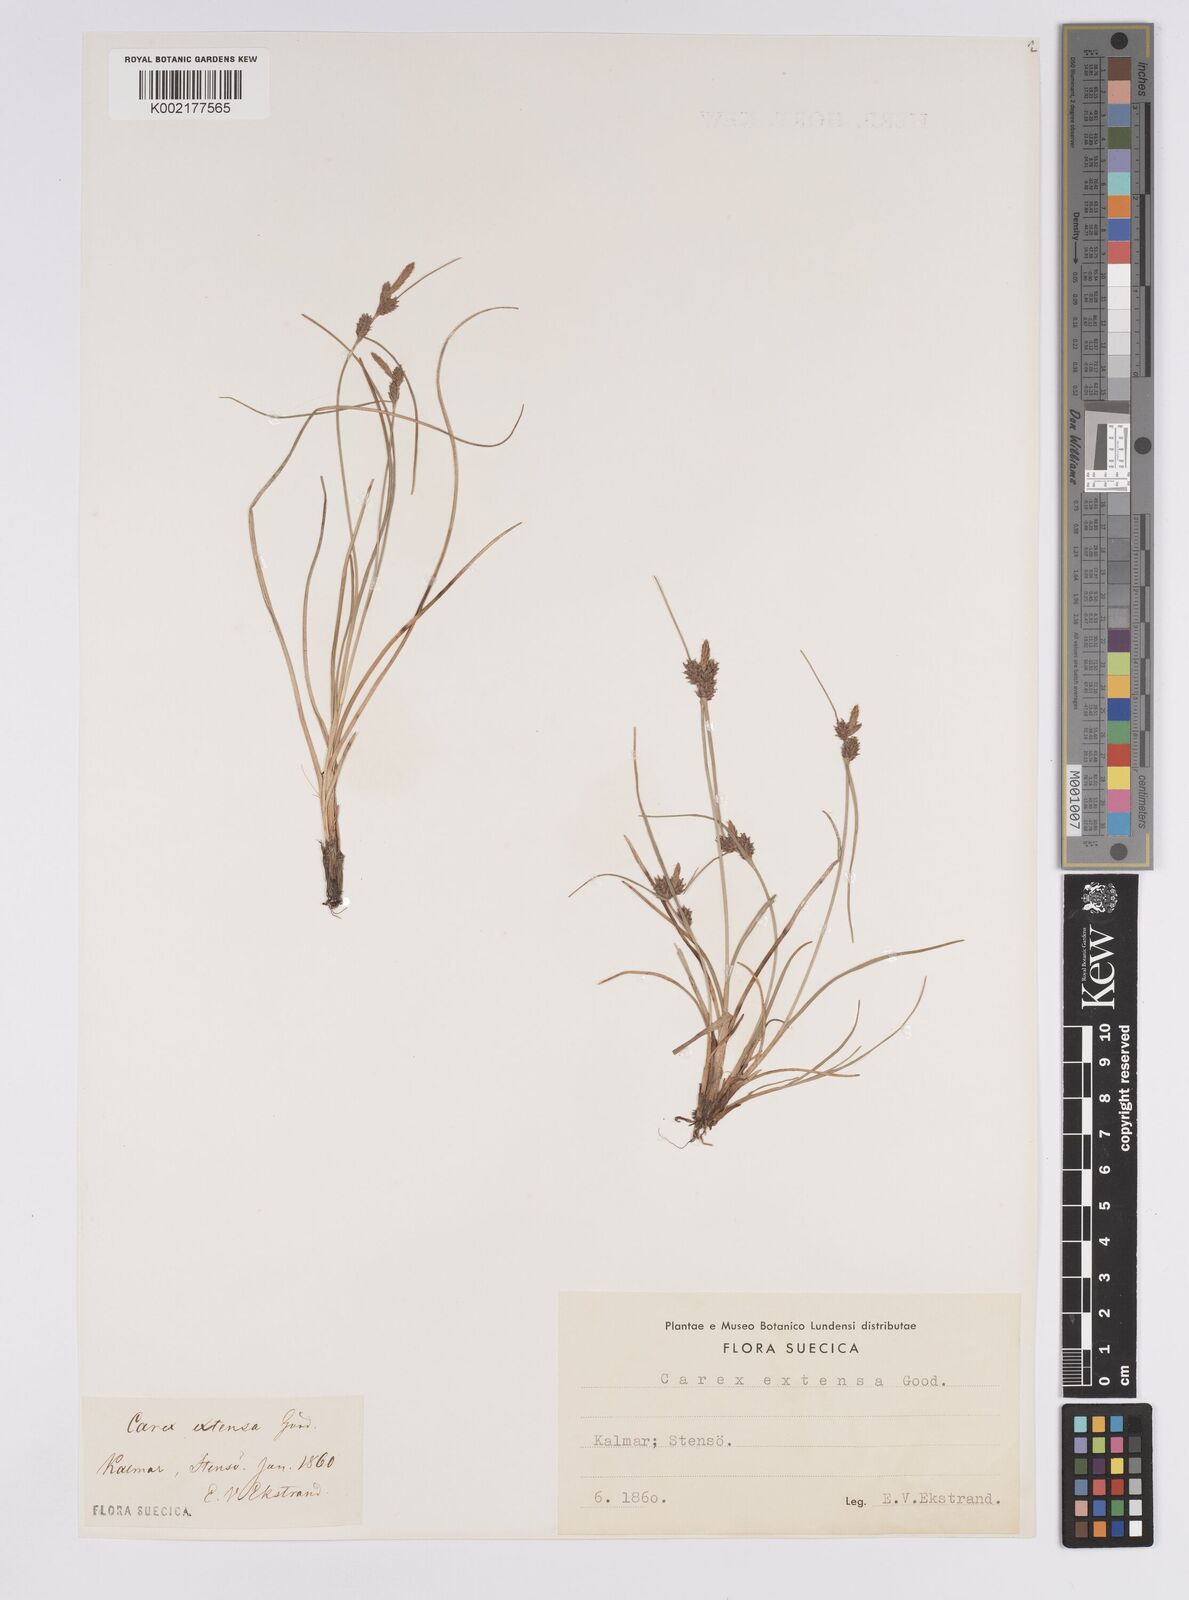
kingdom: Plantae
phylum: Tracheophyta
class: Liliopsida
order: Poales
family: Cyperaceae
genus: Carex
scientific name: Carex extensa
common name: Long-bracted sedge
